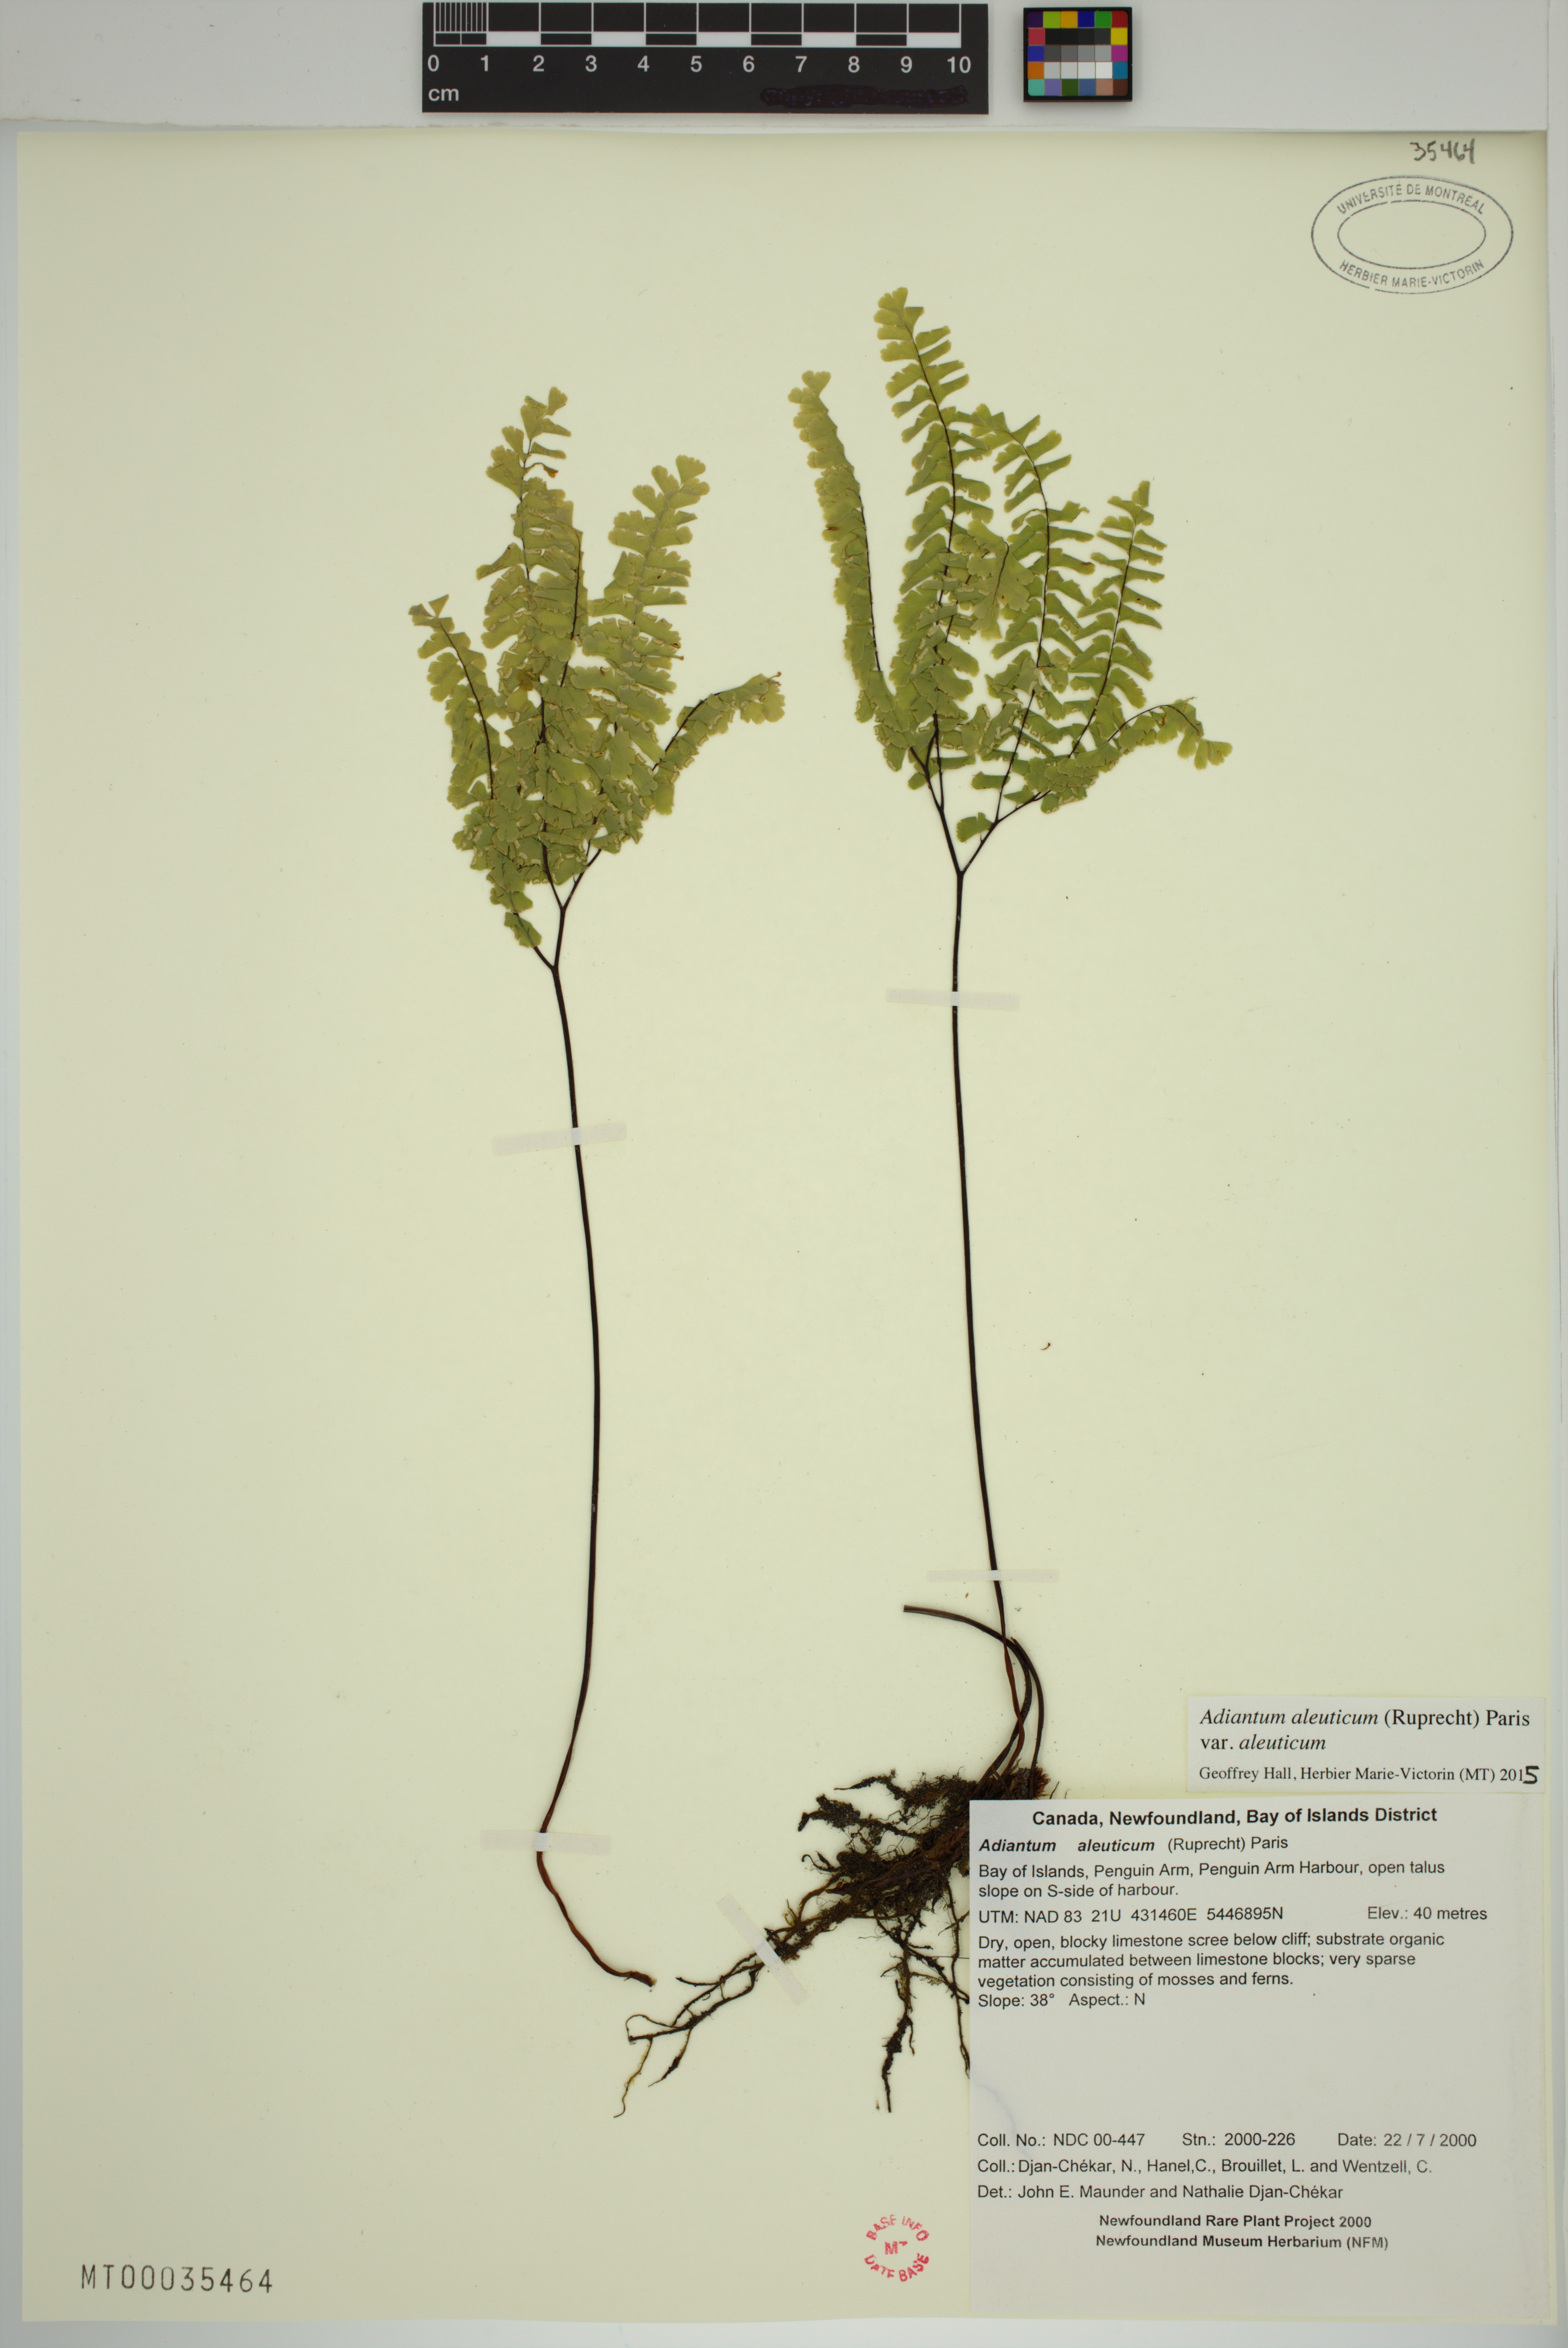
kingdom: Plantae
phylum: Tracheophyta
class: Polypodiopsida
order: Polypodiales
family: Pteridaceae
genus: Adiantum
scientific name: Adiantum aleuticum
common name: Aleutian maidenhair fern
